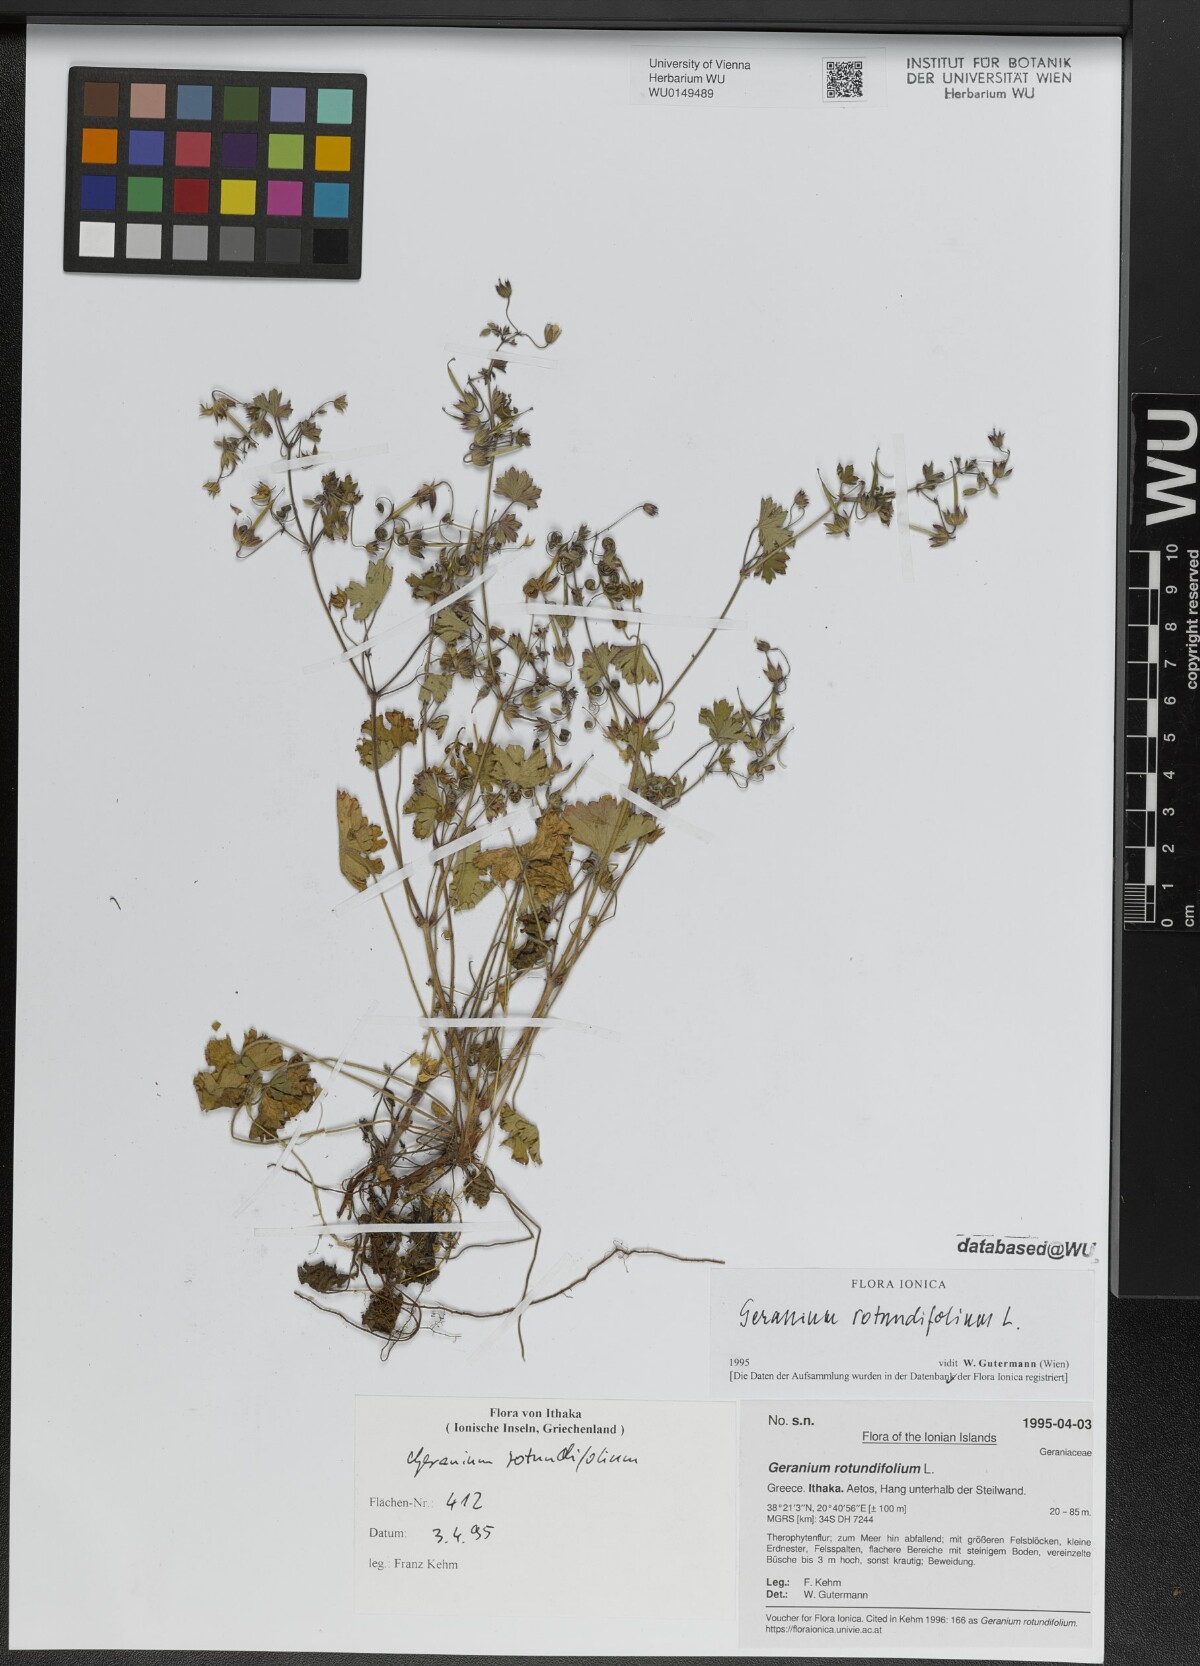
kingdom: Plantae
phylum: Tracheophyta
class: Magnoliopsida
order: Geraniales
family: Geraniaceae
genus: Geranium
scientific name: Geranium rotundifolium
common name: Round-leaved crane's-bill
